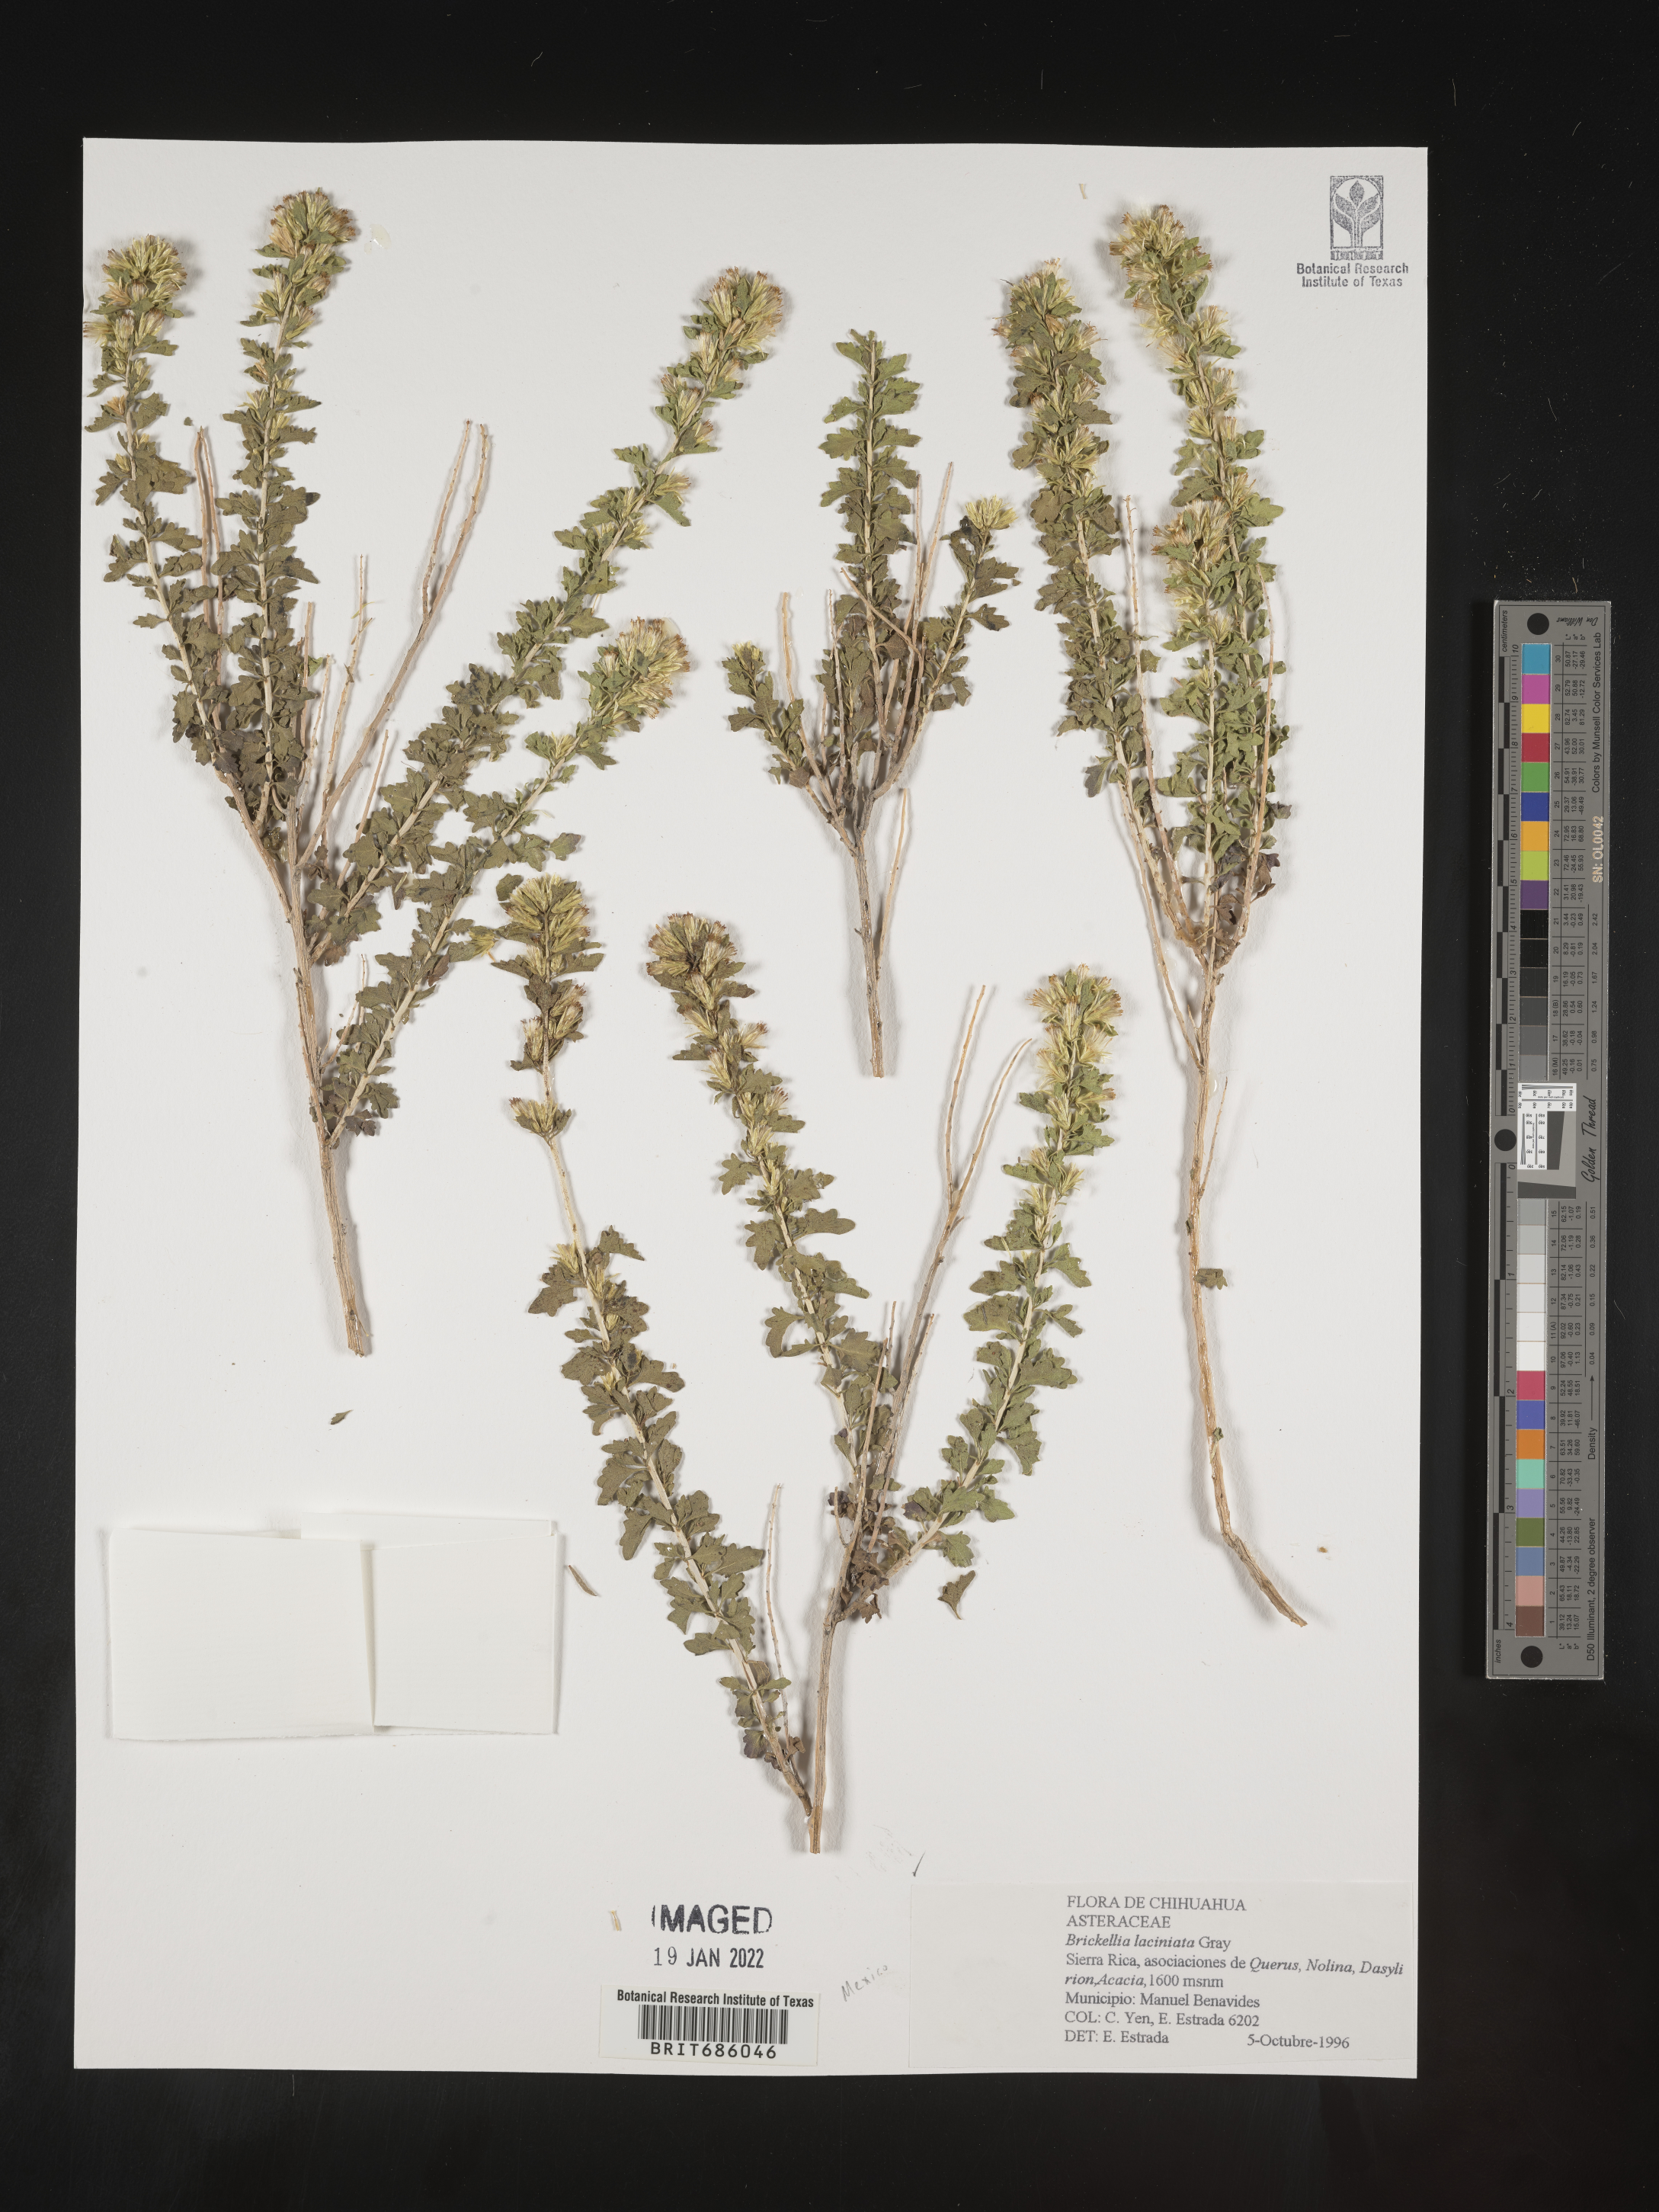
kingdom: Plantae
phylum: Tracheophyta
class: Magnoliopsida
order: Asterales
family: Asteraceae
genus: Brickellia
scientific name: Brickellia
